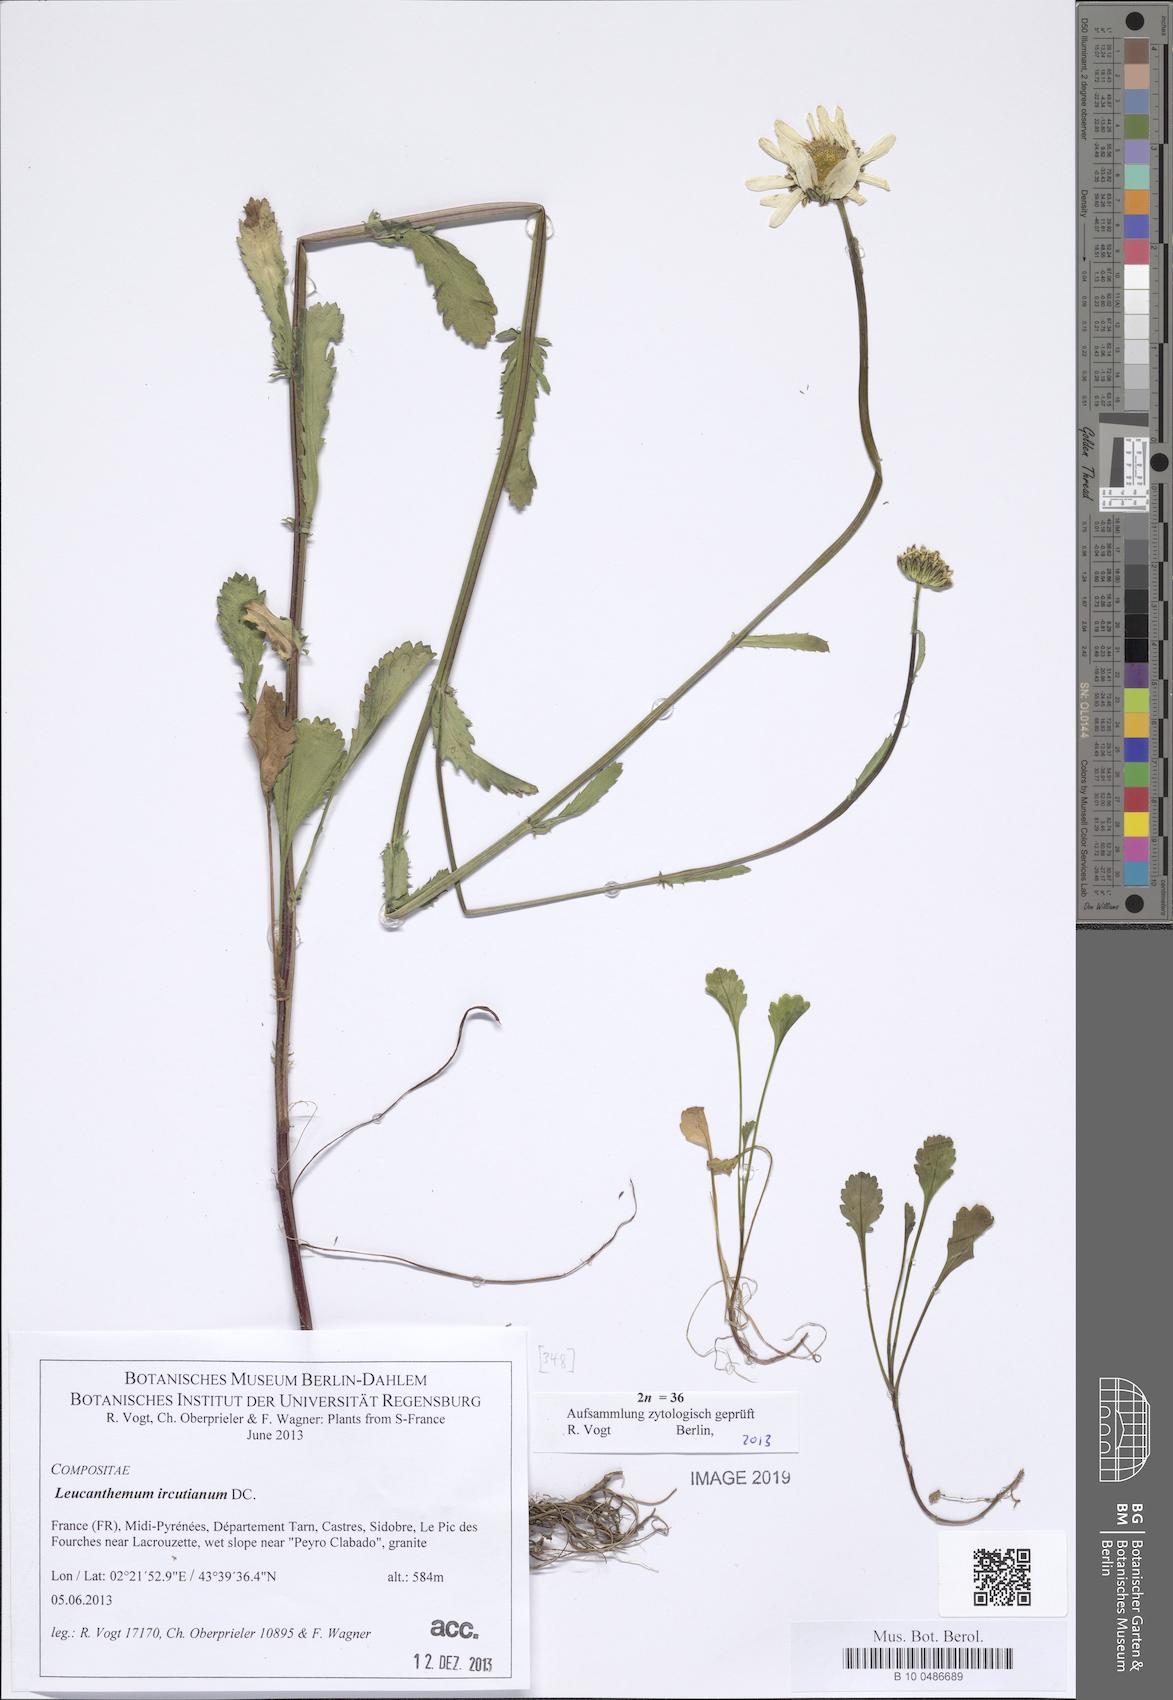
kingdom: Plantae
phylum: Tracheophyta
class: Magnoliopsida
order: Asterales
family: Asteraceae
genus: Leucanthemum
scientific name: Leucanthemum ircutianum
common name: Daisy
